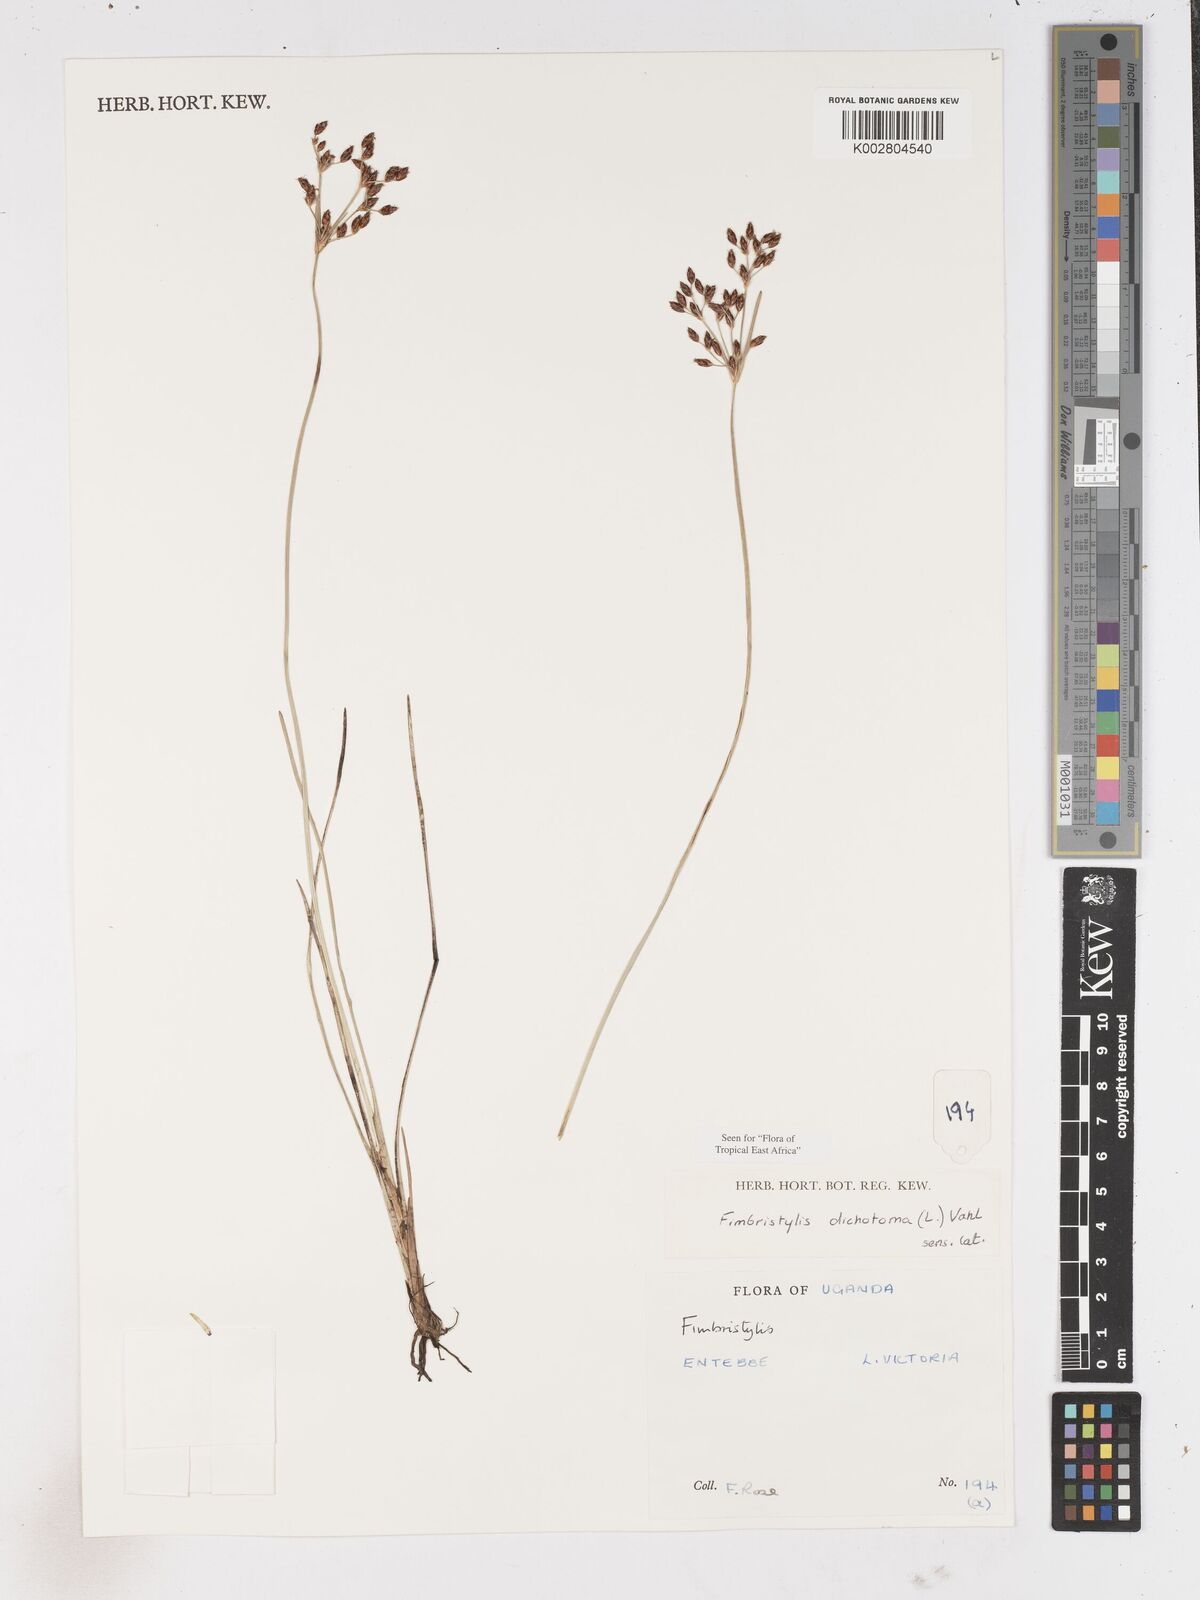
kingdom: Plantae
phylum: Tracheophyta
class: Liliopsida
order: Poales
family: Cyperaceae
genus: Fimbristylis
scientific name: Fimbristylis dichotoma
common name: Forked fimbry
